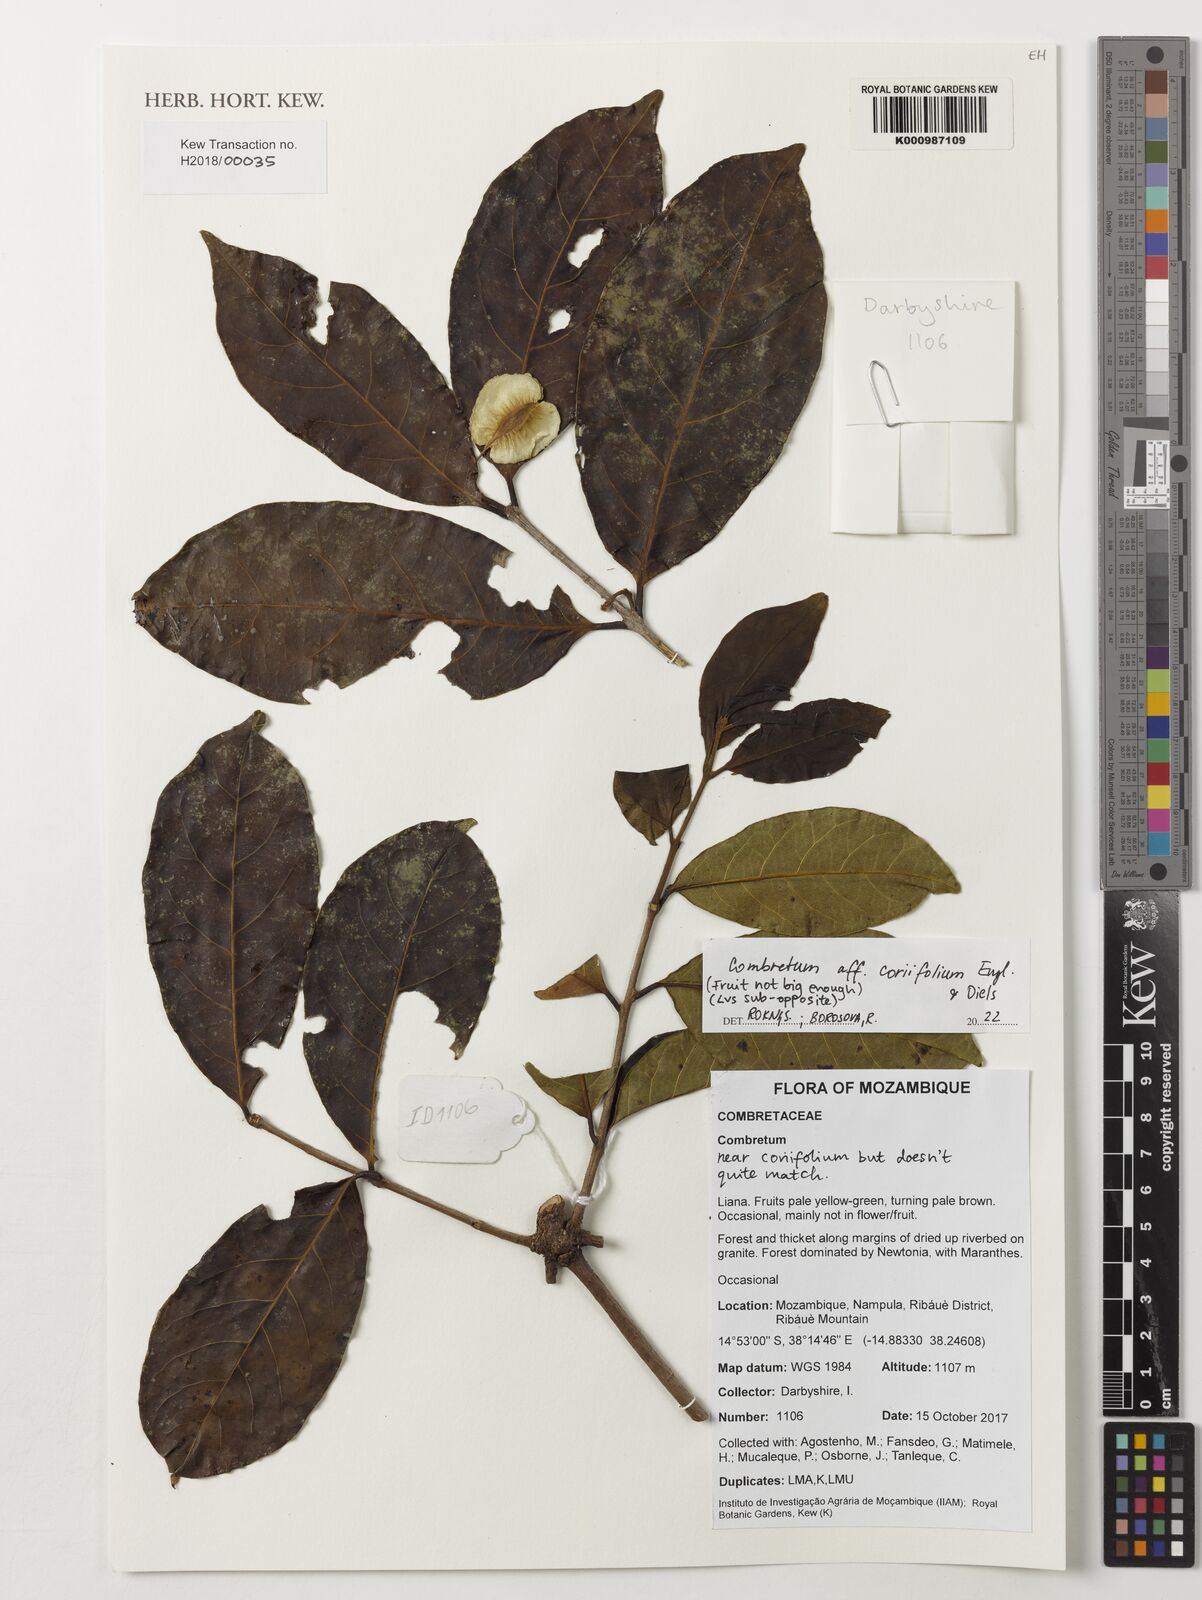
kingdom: Plantae
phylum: Tracheophyta
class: Magnoliopsida
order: Myrtales
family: Combretaceae
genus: Combretum
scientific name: Combretum coriifolium
